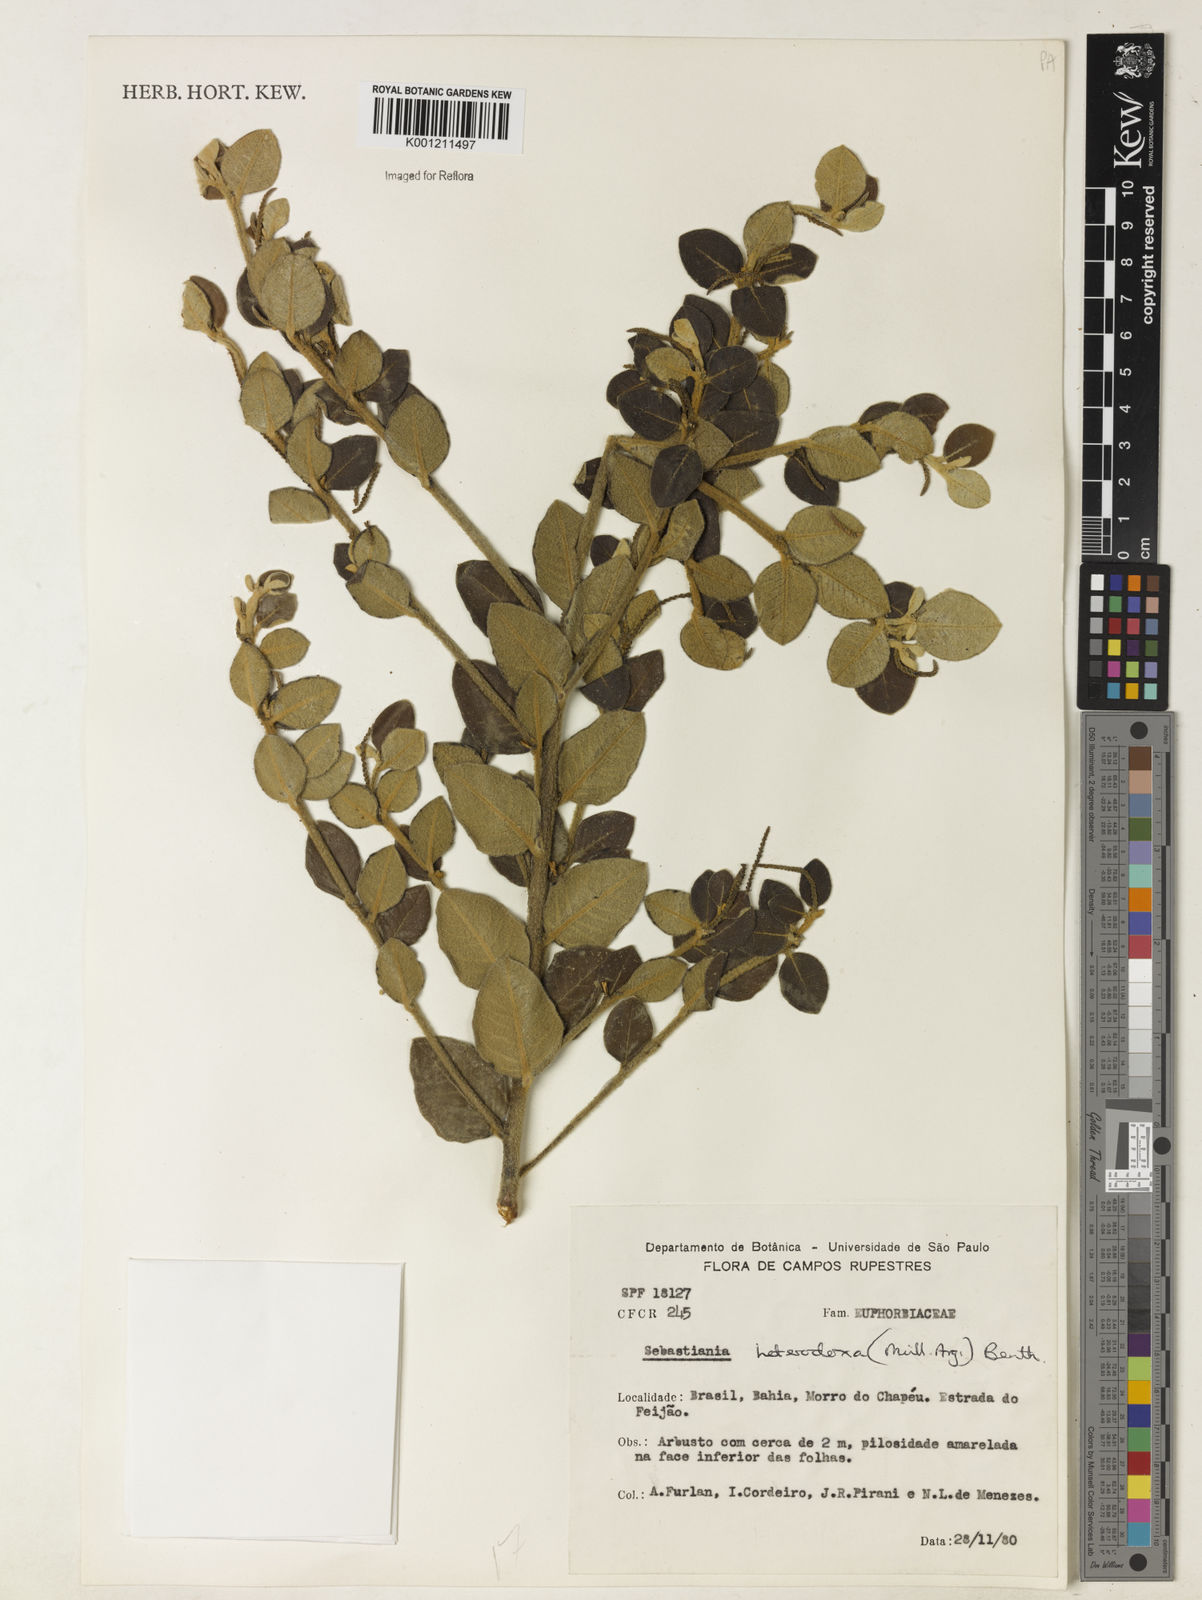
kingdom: Plantae
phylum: Tracheophyta
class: Magnoliopsida
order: Malpighiales
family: Euphorbiaceae
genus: Microstachys
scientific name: Microstachys
